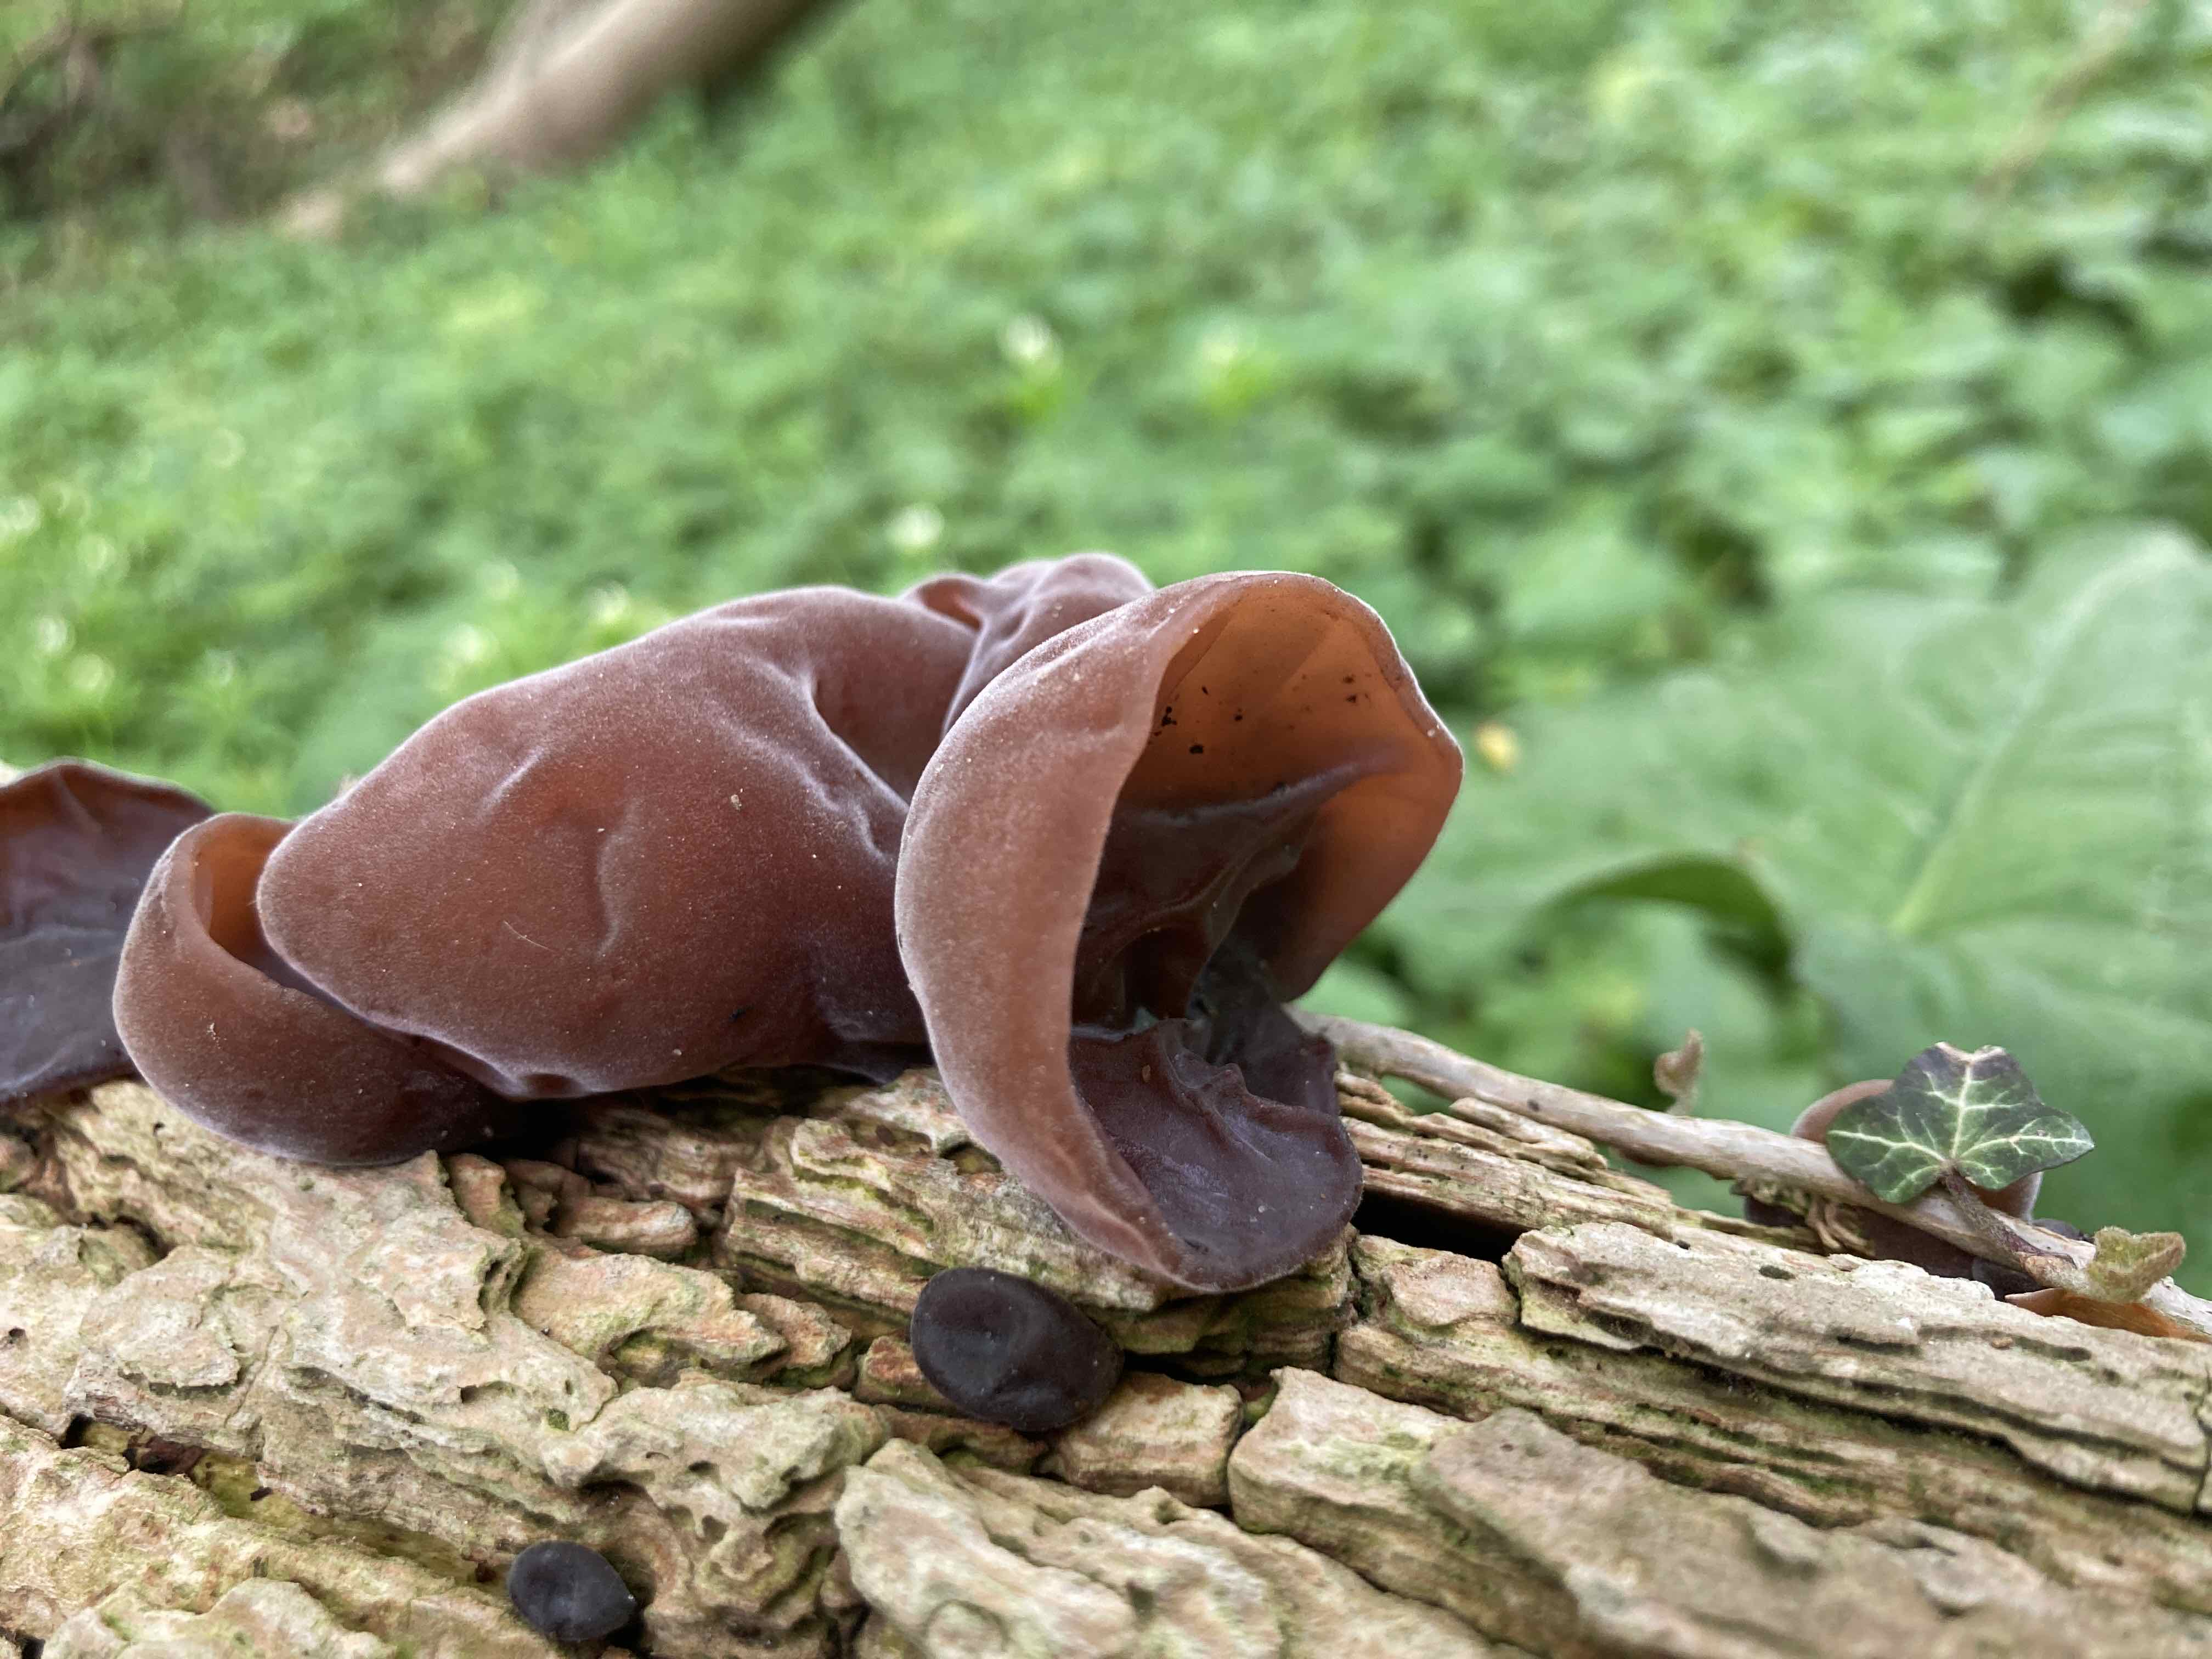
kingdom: Fungi
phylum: Basidiomycota
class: Agaricomycetes
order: Auriculariales
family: Auriculariaceae
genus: Auricularia
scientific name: Auricularia auricula-judae
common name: almindelig judasøre
